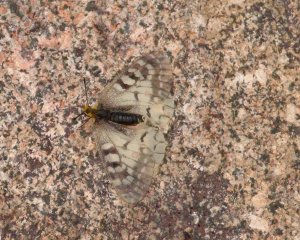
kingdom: Animalia
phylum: Arthropoda
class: Insecta
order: Lepidoptera
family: Papilionidae
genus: Parnassius
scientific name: Parnassius clodius
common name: Clodius Parnassian
